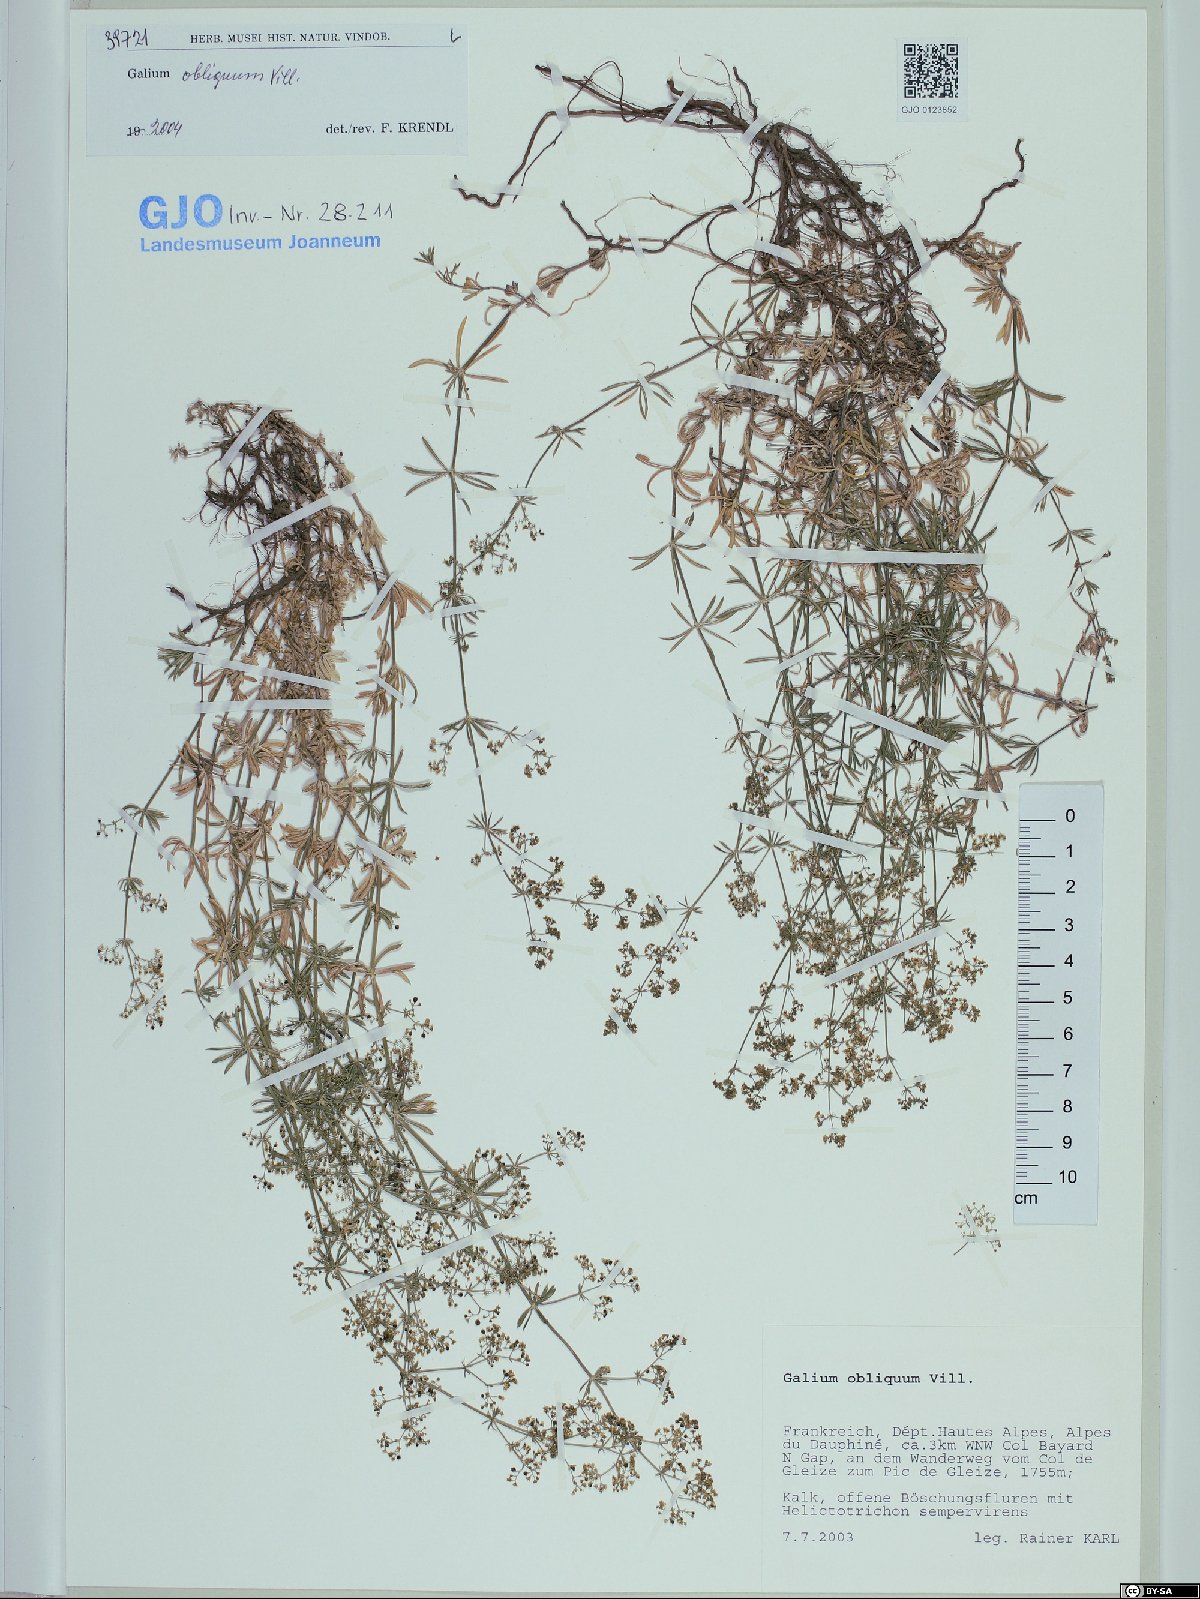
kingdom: Plantae
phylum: Tracheophyta
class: Magnoliopsida
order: Gentianales
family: Rubiaceae
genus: Galium
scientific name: Galium obliquum
